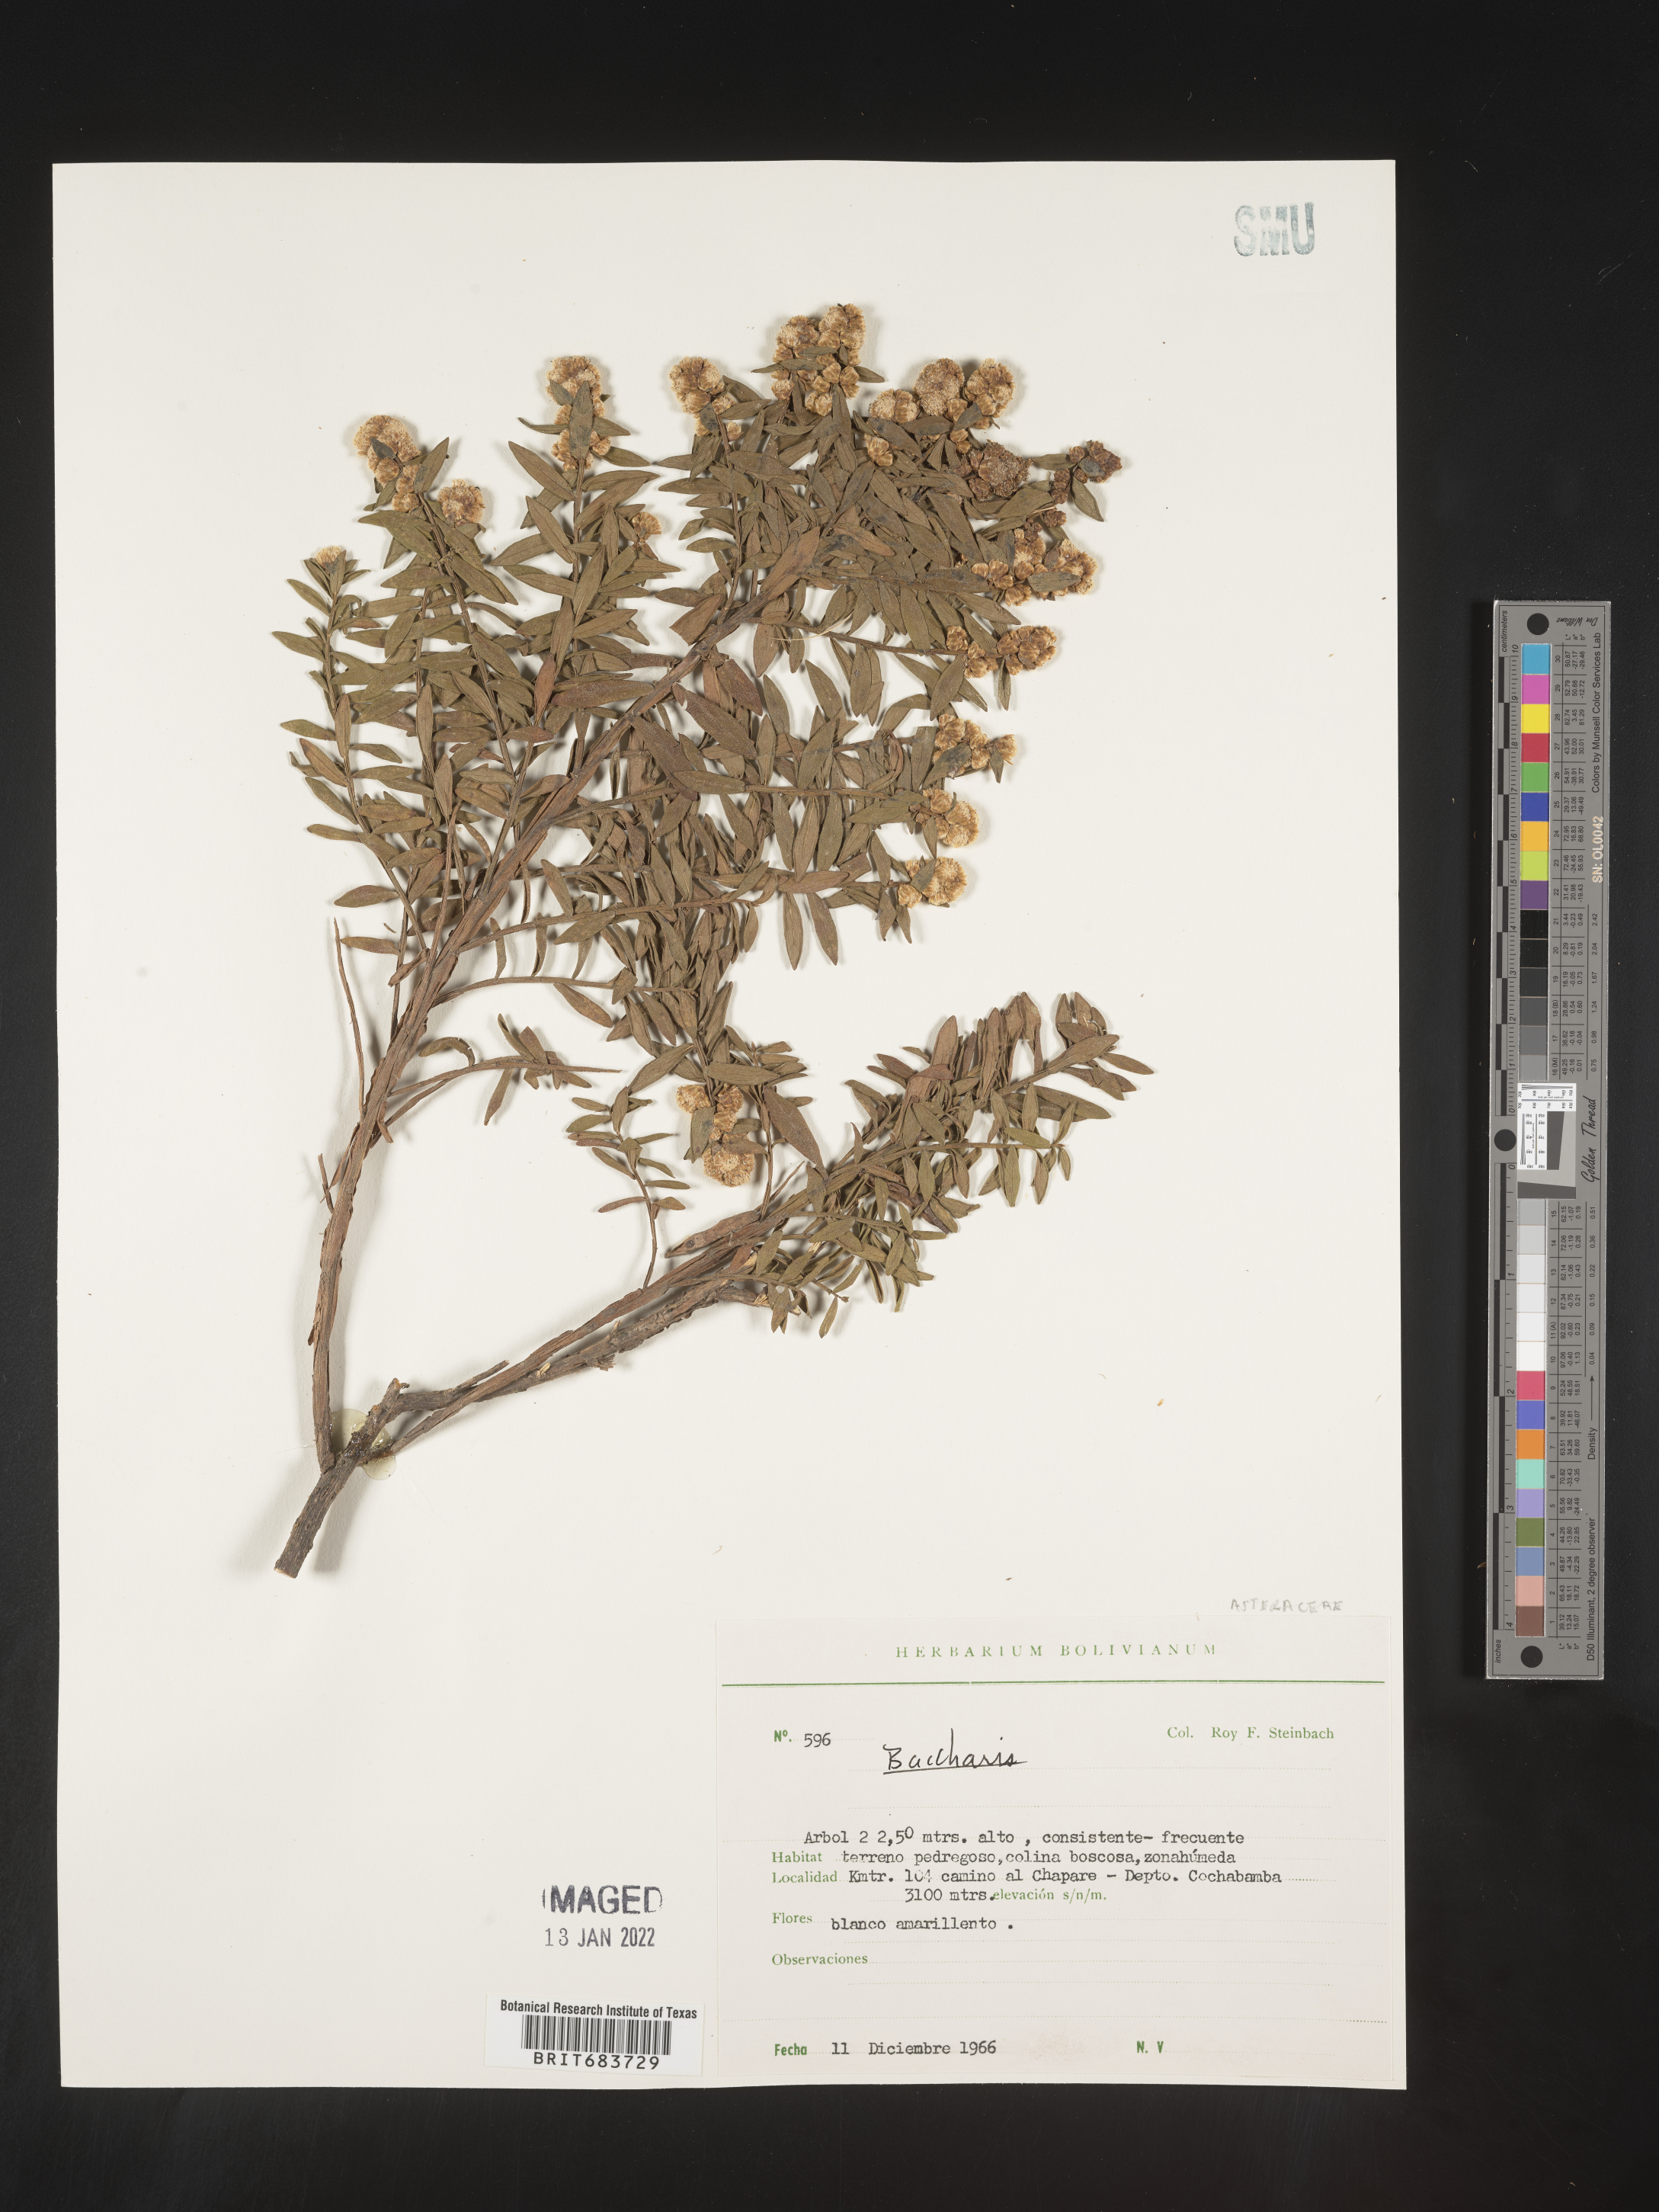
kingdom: Plantae
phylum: Tracheophyta
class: Magnoliopsida
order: Asterales
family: Asteraceae
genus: Baccharis
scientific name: Baccharis
